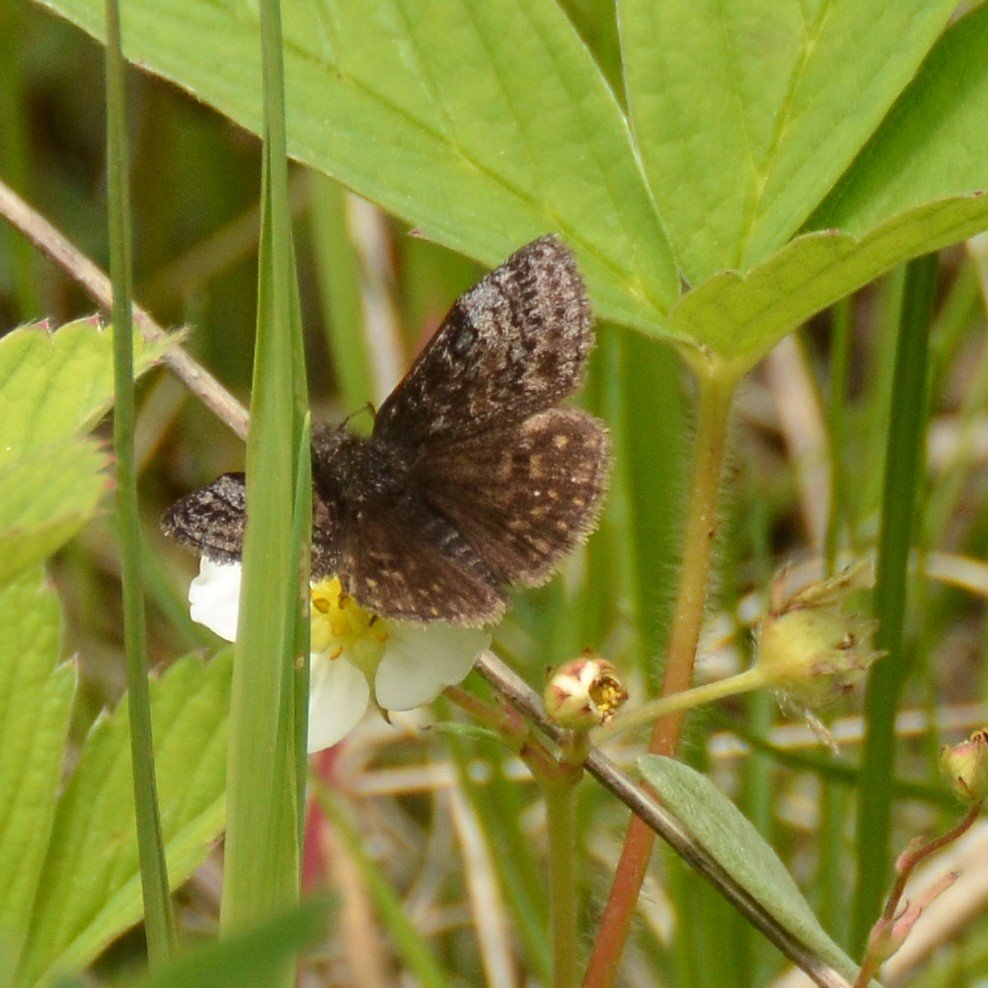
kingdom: Animalia
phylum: Arthropoda
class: Insecta
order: Lepidoptera
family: Hesperiidae
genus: Erynnis
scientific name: Erynnis icelus
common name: Dreamy Duskywing
